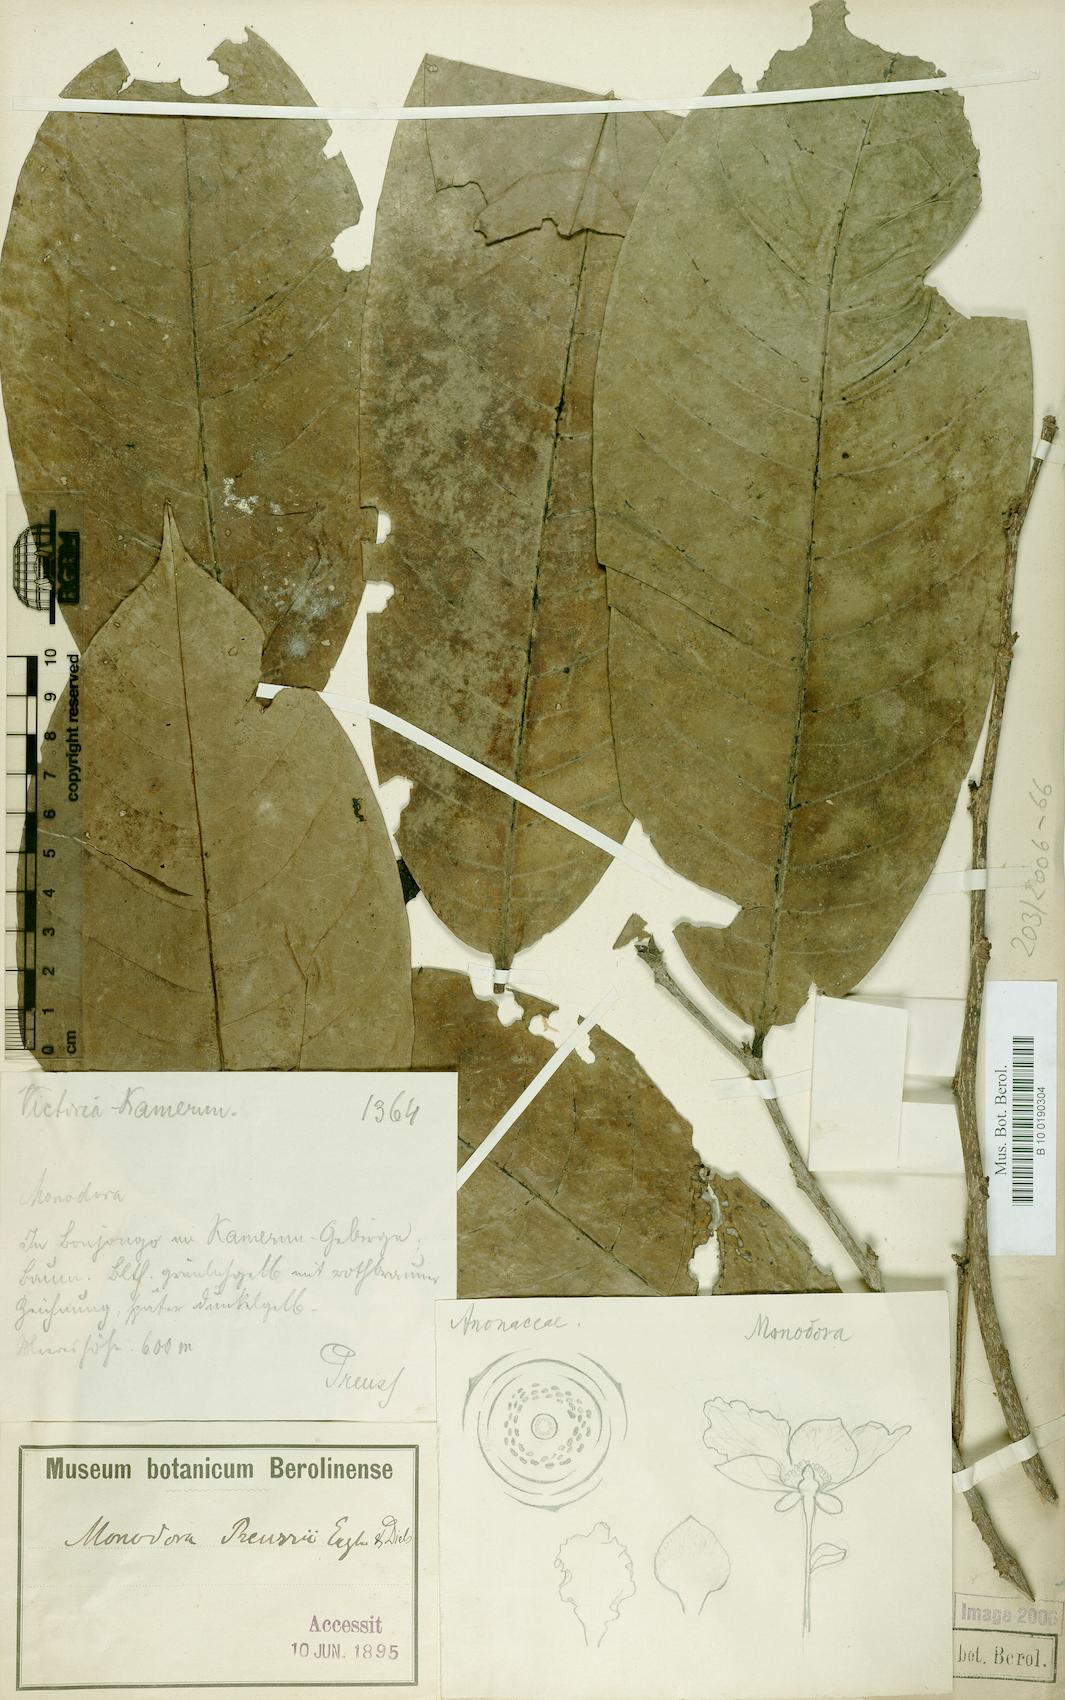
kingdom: Plantae
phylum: Tracheophyta
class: Magnoliopsida
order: Magnoliales
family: Annonaceae
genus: Monodora
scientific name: Monodora undulata
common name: Yellow-flower-nutmeg
